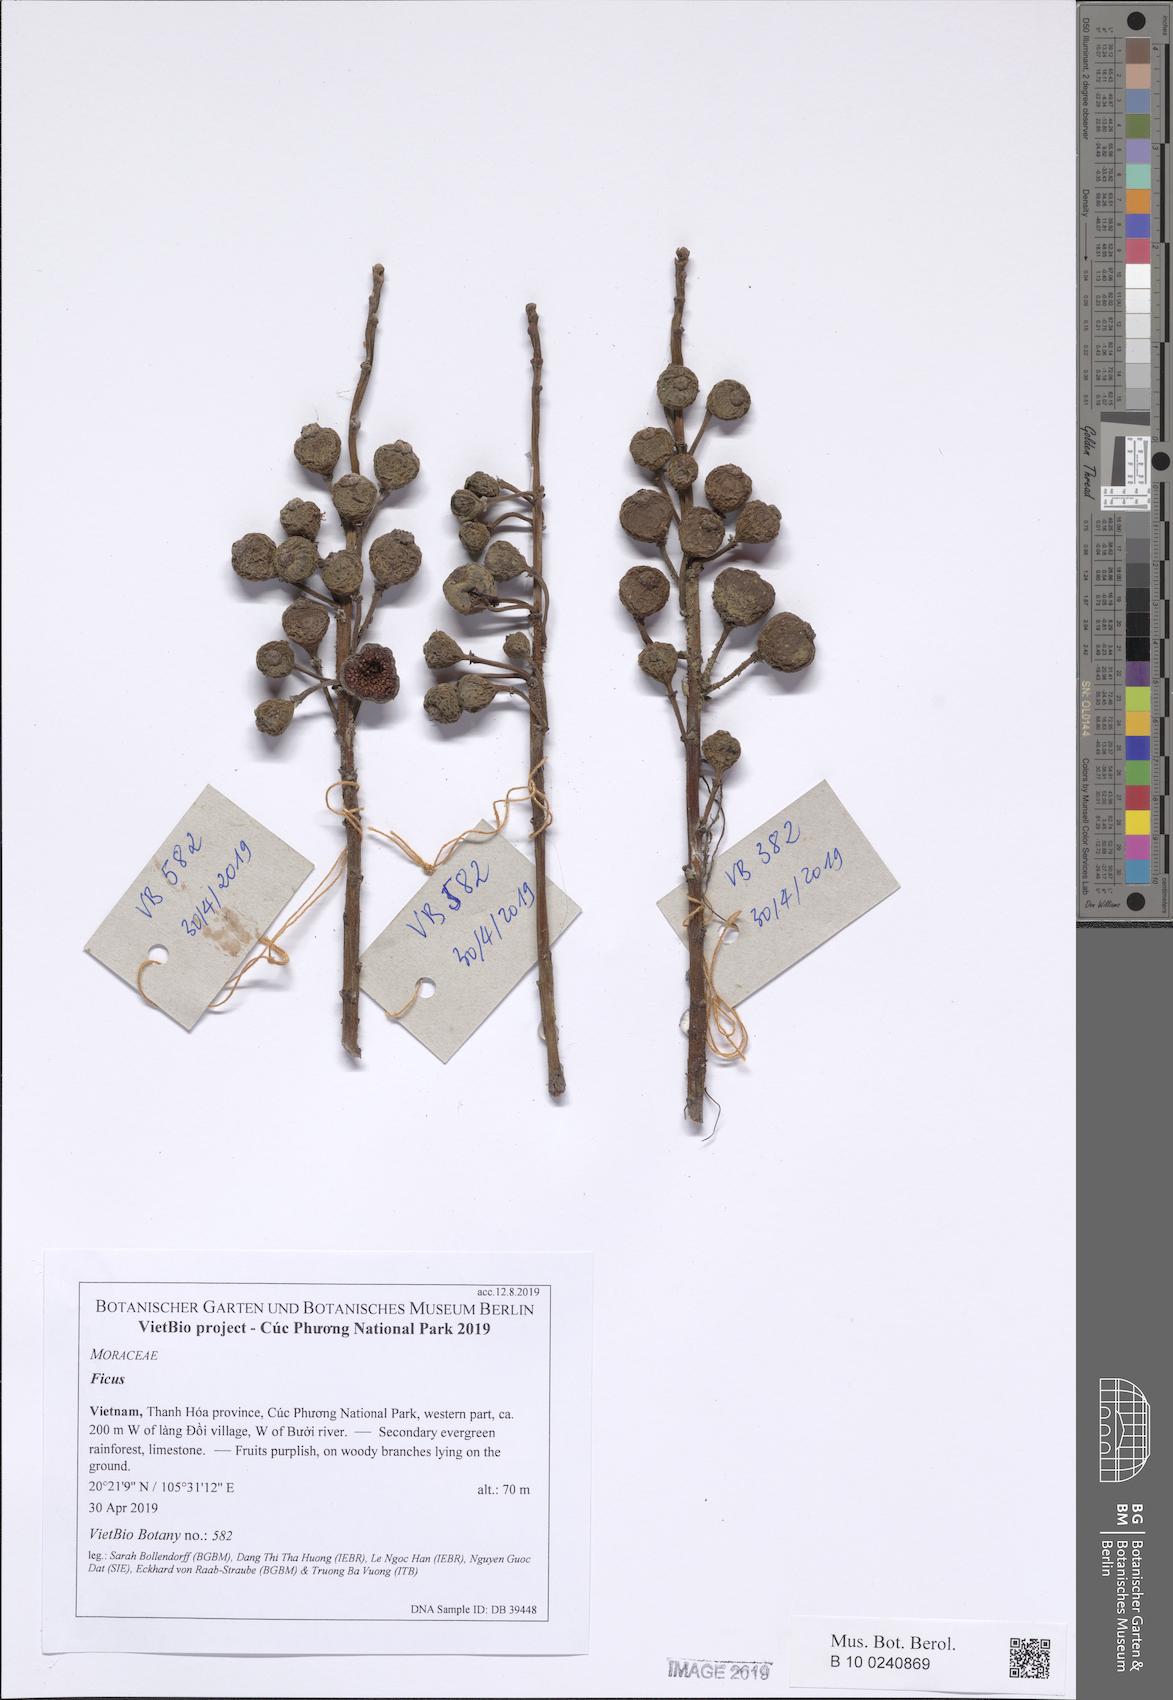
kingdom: Plantae
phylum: Tracheophyta
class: Magnoliopsida
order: Rosales
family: Moraceae
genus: Ficus
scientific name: Ficus heterostyla
